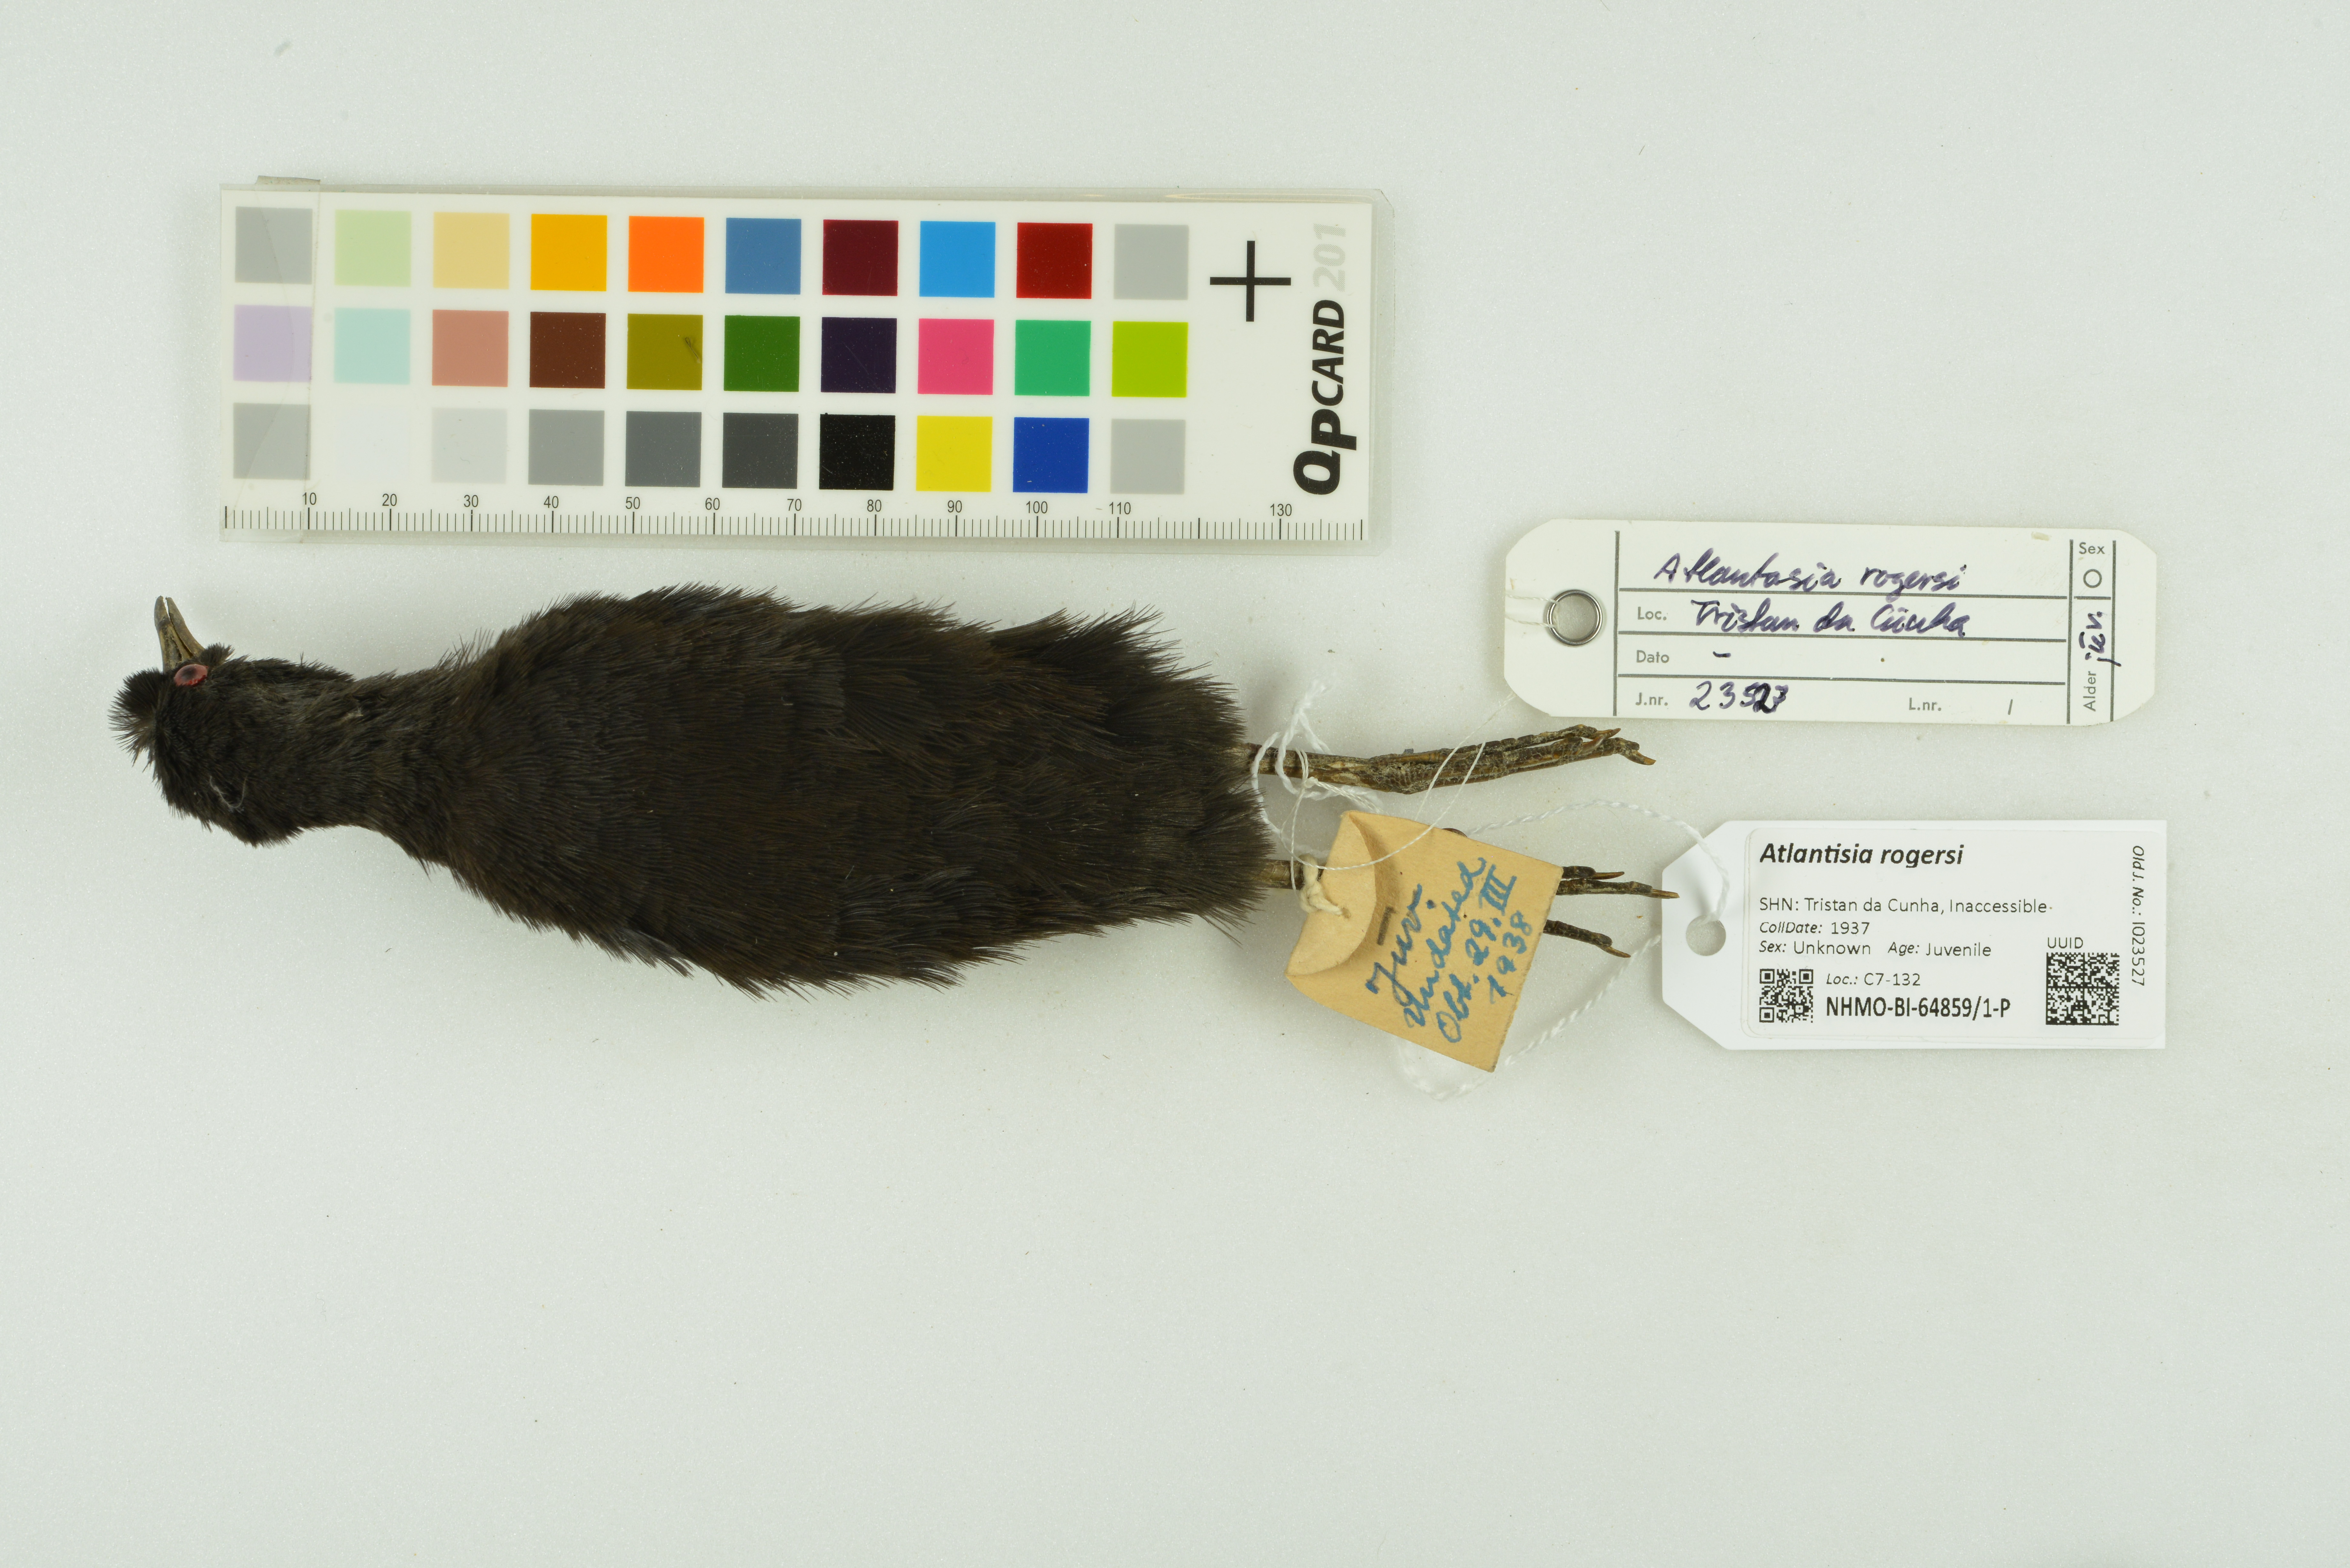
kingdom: Animalia
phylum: Chordata
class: Aves
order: Gruiformes
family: Rallidae
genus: Atlantisia
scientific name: Atlantisia rogersi
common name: Inaccessible island rail
